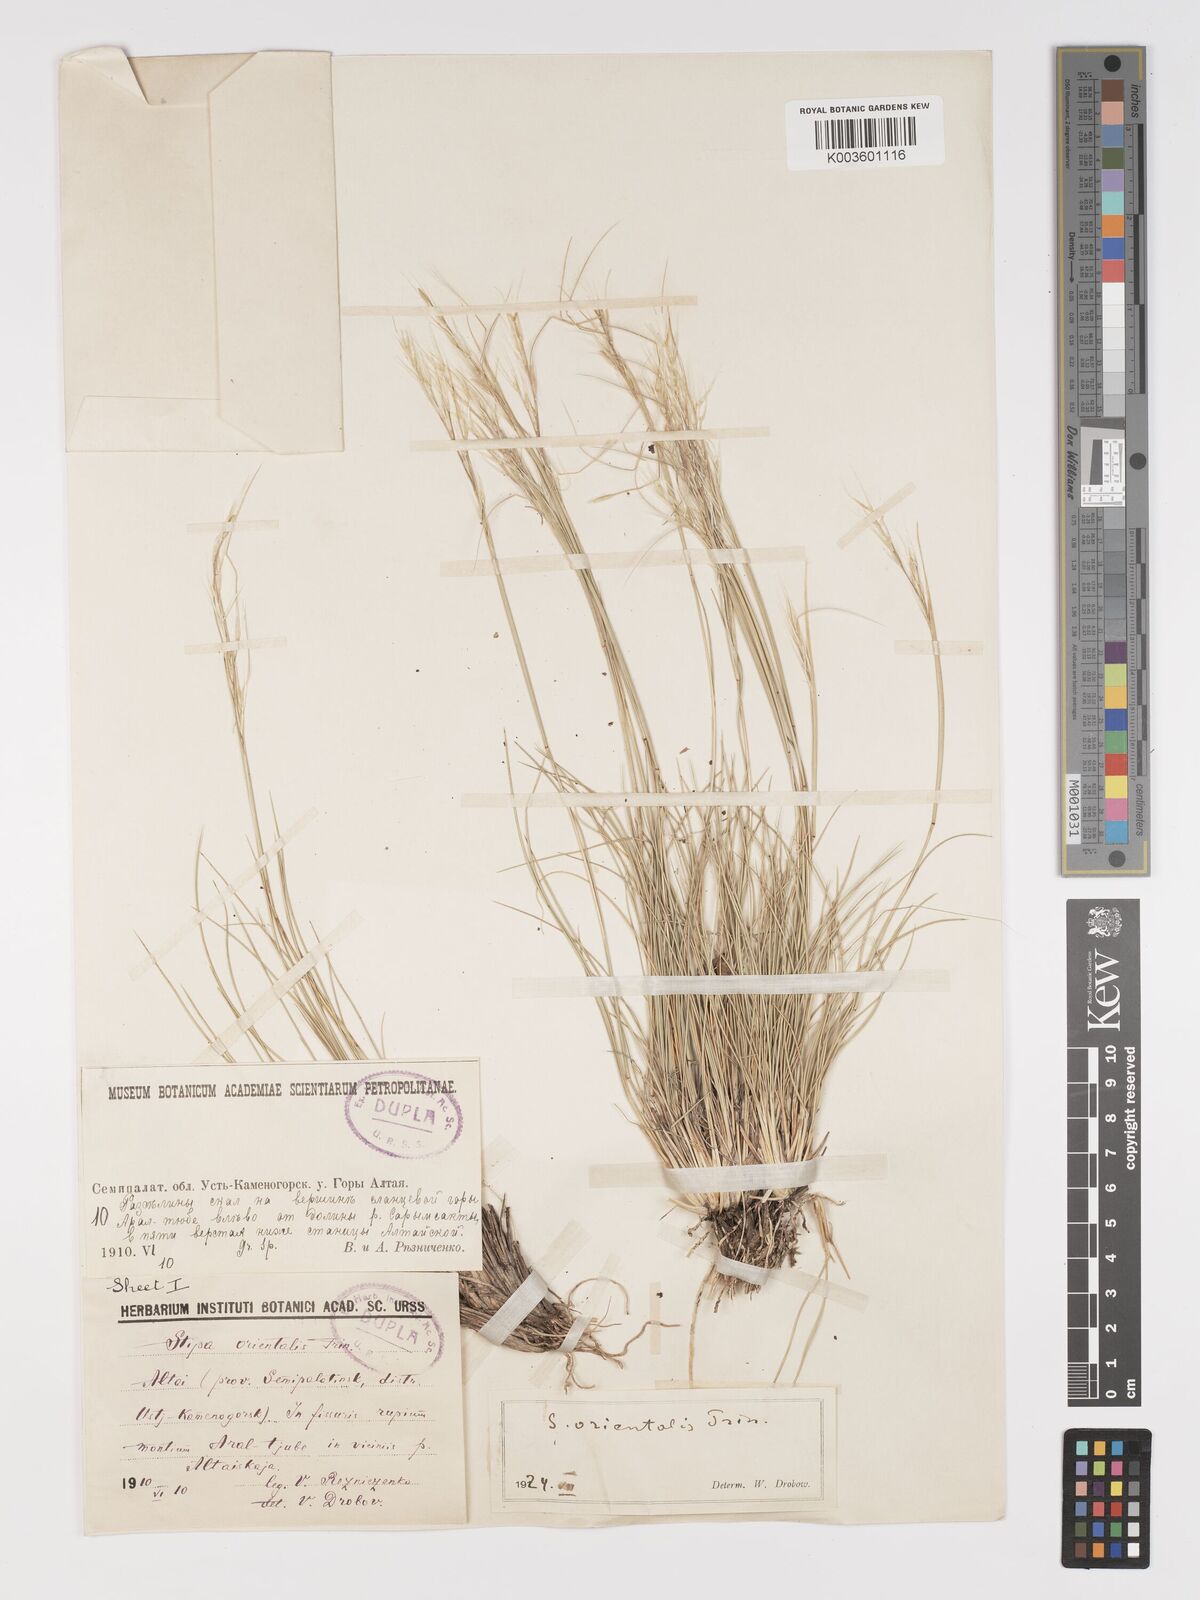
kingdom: Plantae
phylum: Tracheophyta
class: Liliopsida
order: Poales
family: Poaceae
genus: Stipa
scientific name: Stipa orientalis
